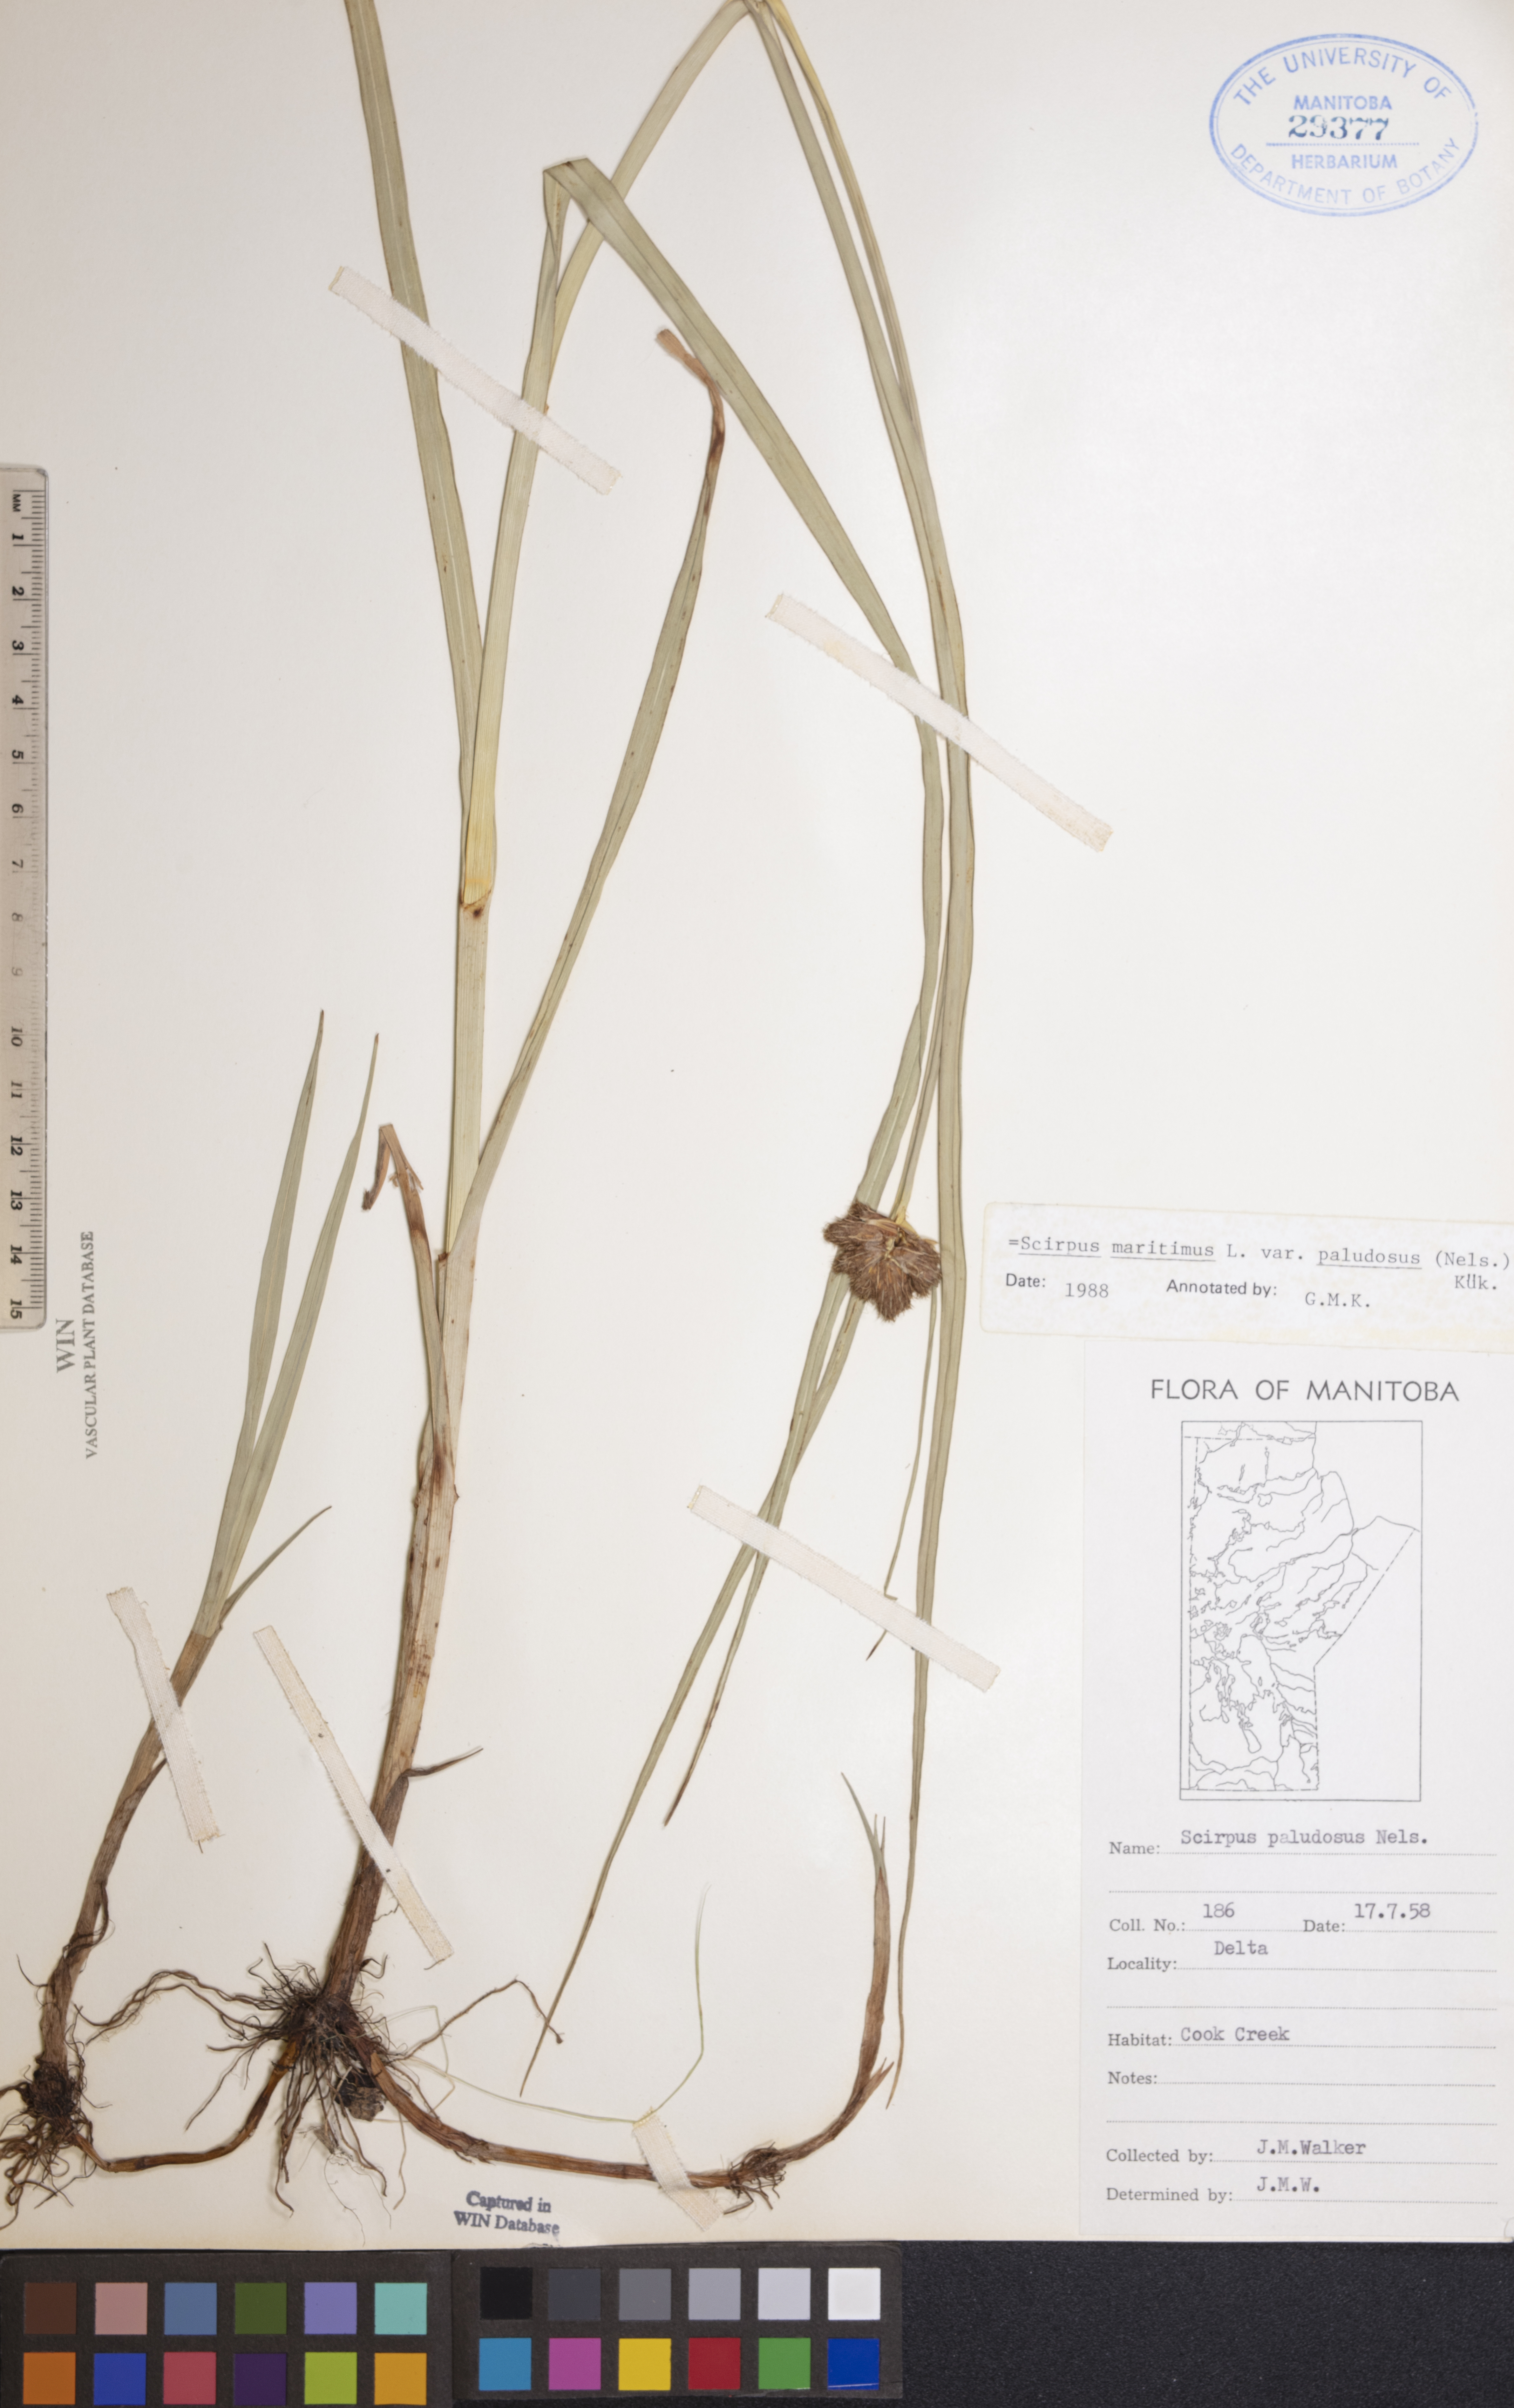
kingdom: Plantae
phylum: Tracheophyta
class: Liliopsida
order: Poales
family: Cyperaceae
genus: Bolboschoenus
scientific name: Bolboschoenus maritimus
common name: Sea club-rush
